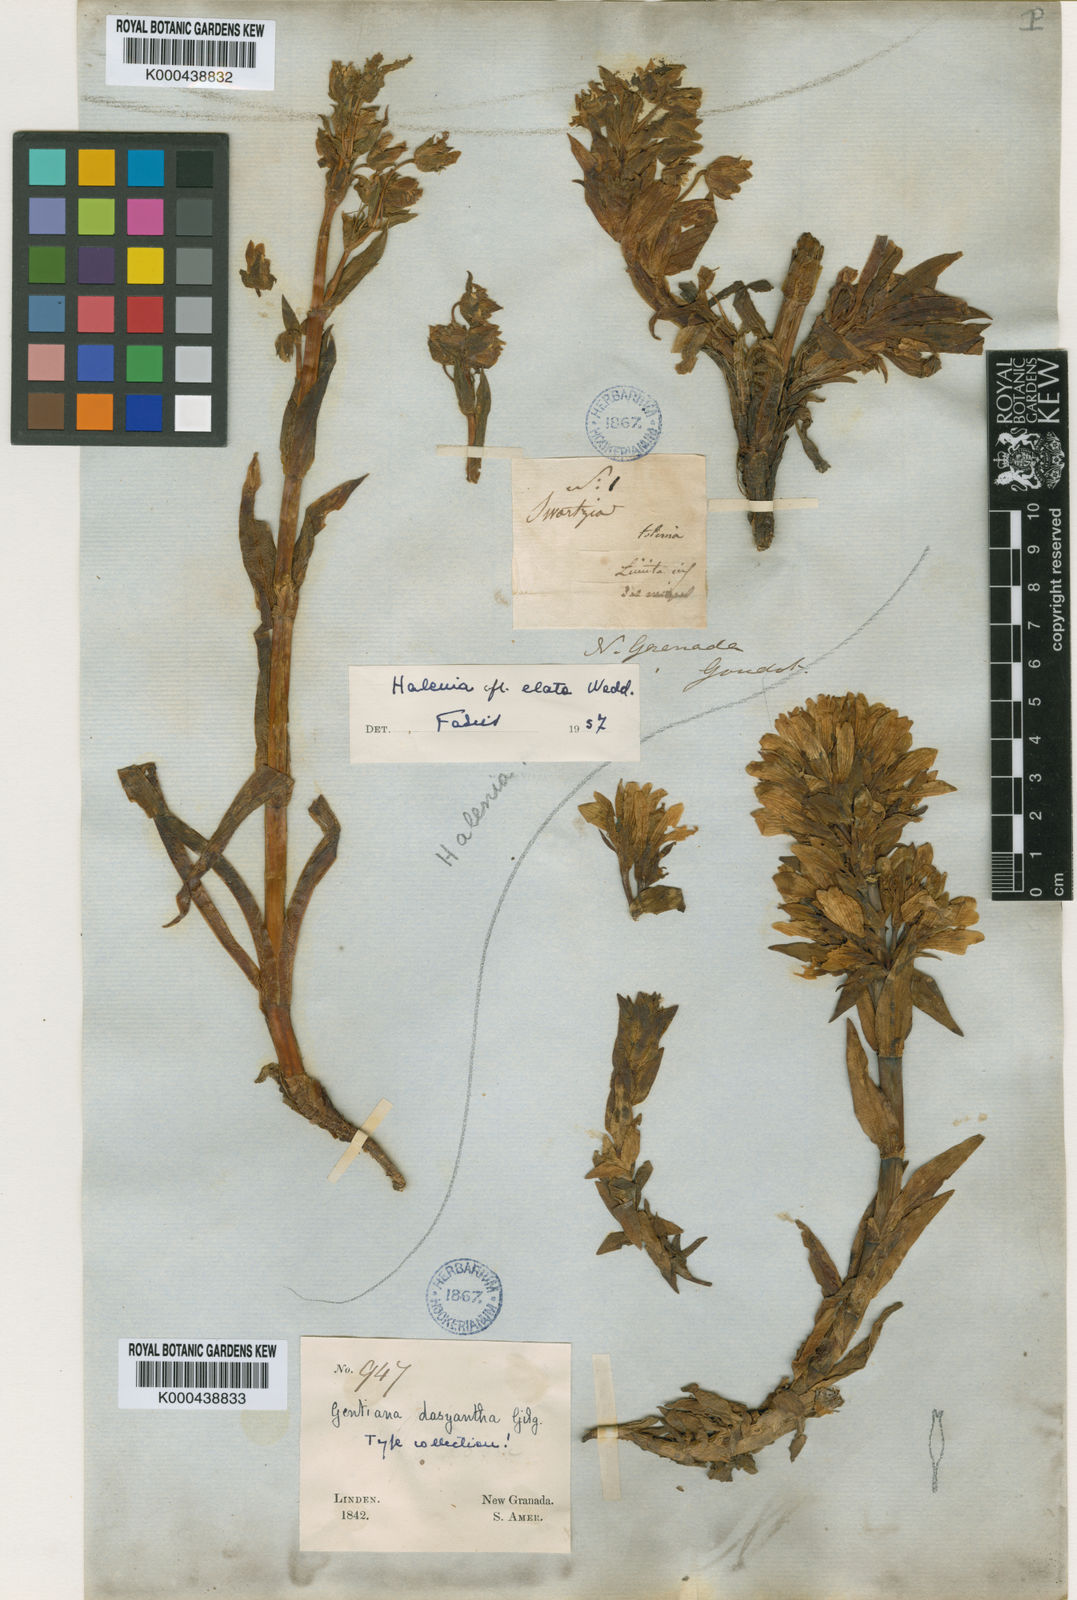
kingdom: Plantae
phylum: Tracheophyta
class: Magnoliopsida
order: Gentianales
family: Gentianaceae
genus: Gentianella
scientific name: Gentianella selaginifolia
